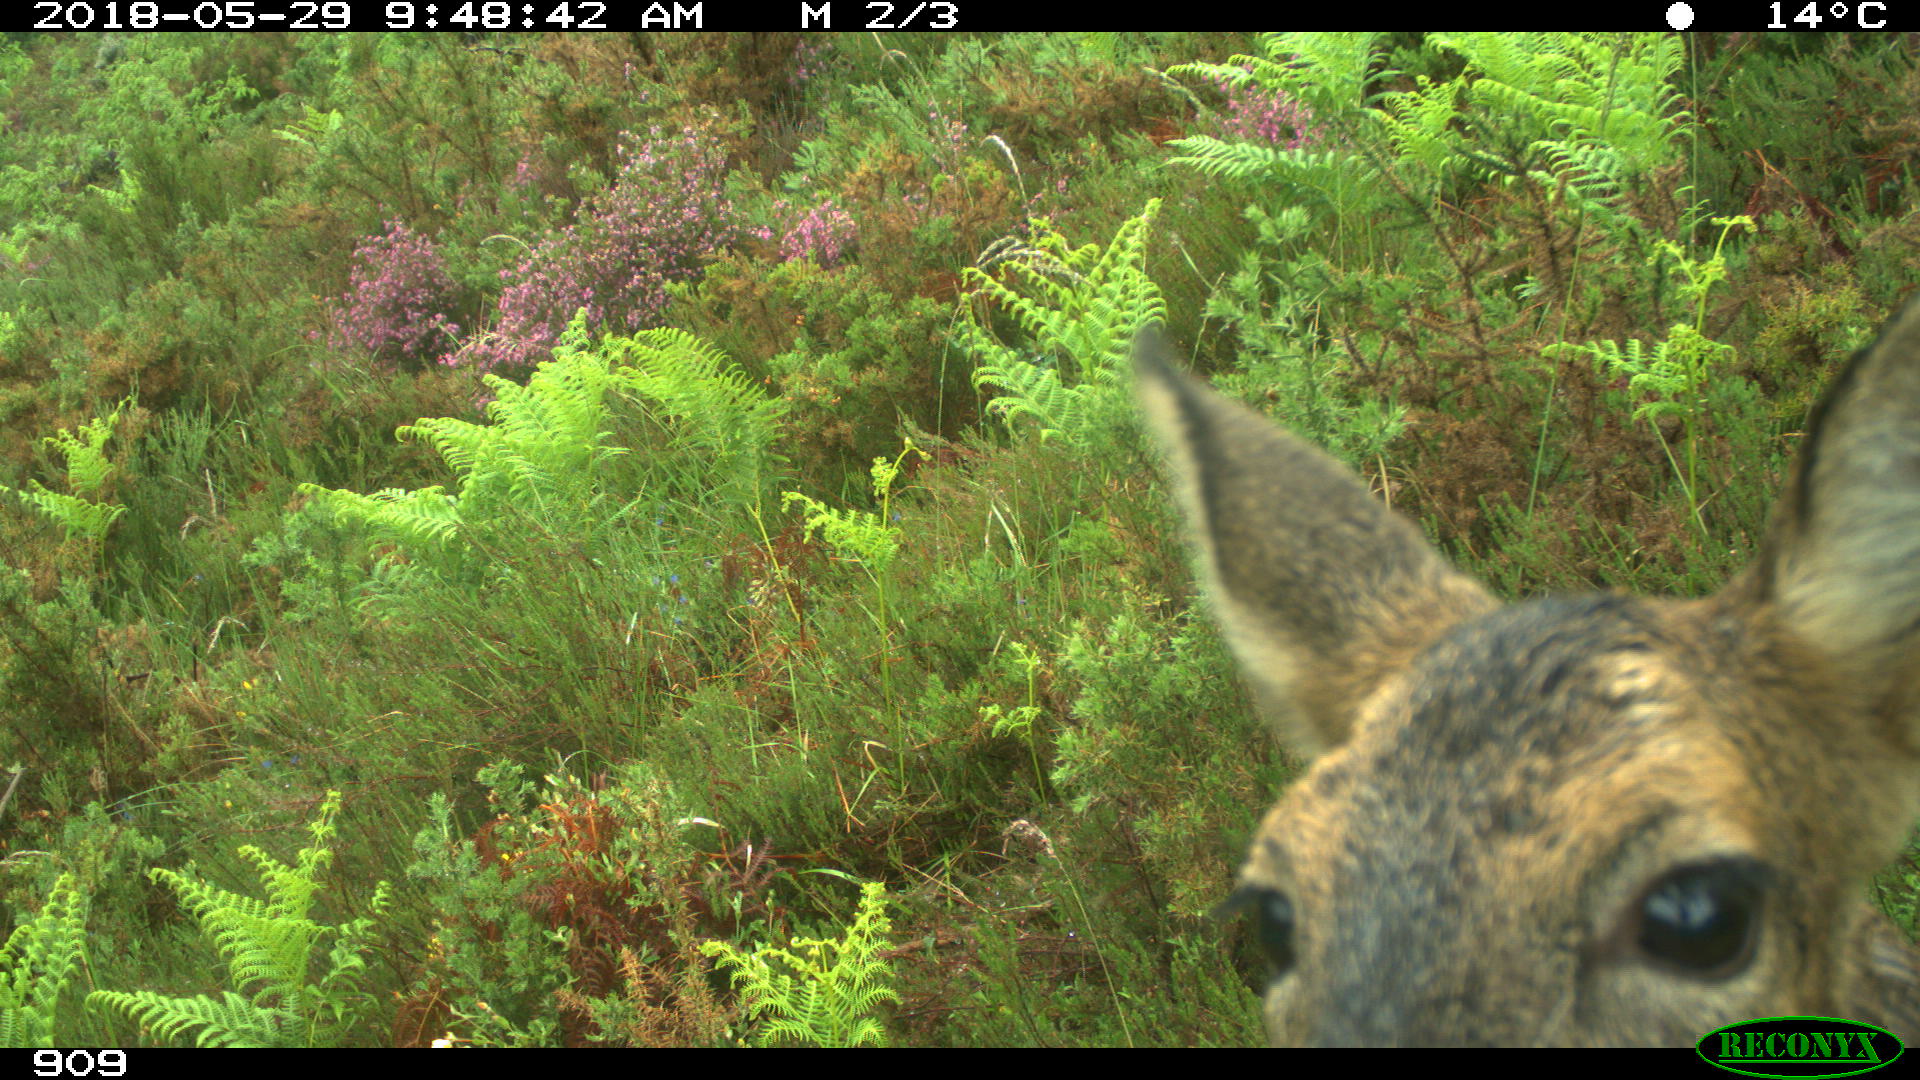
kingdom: Animalia
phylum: Chordata
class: Mammalia
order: Artiodactyla
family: Cervidae
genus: Capreolus
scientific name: Capreolus capreolus
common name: Western roe deer
